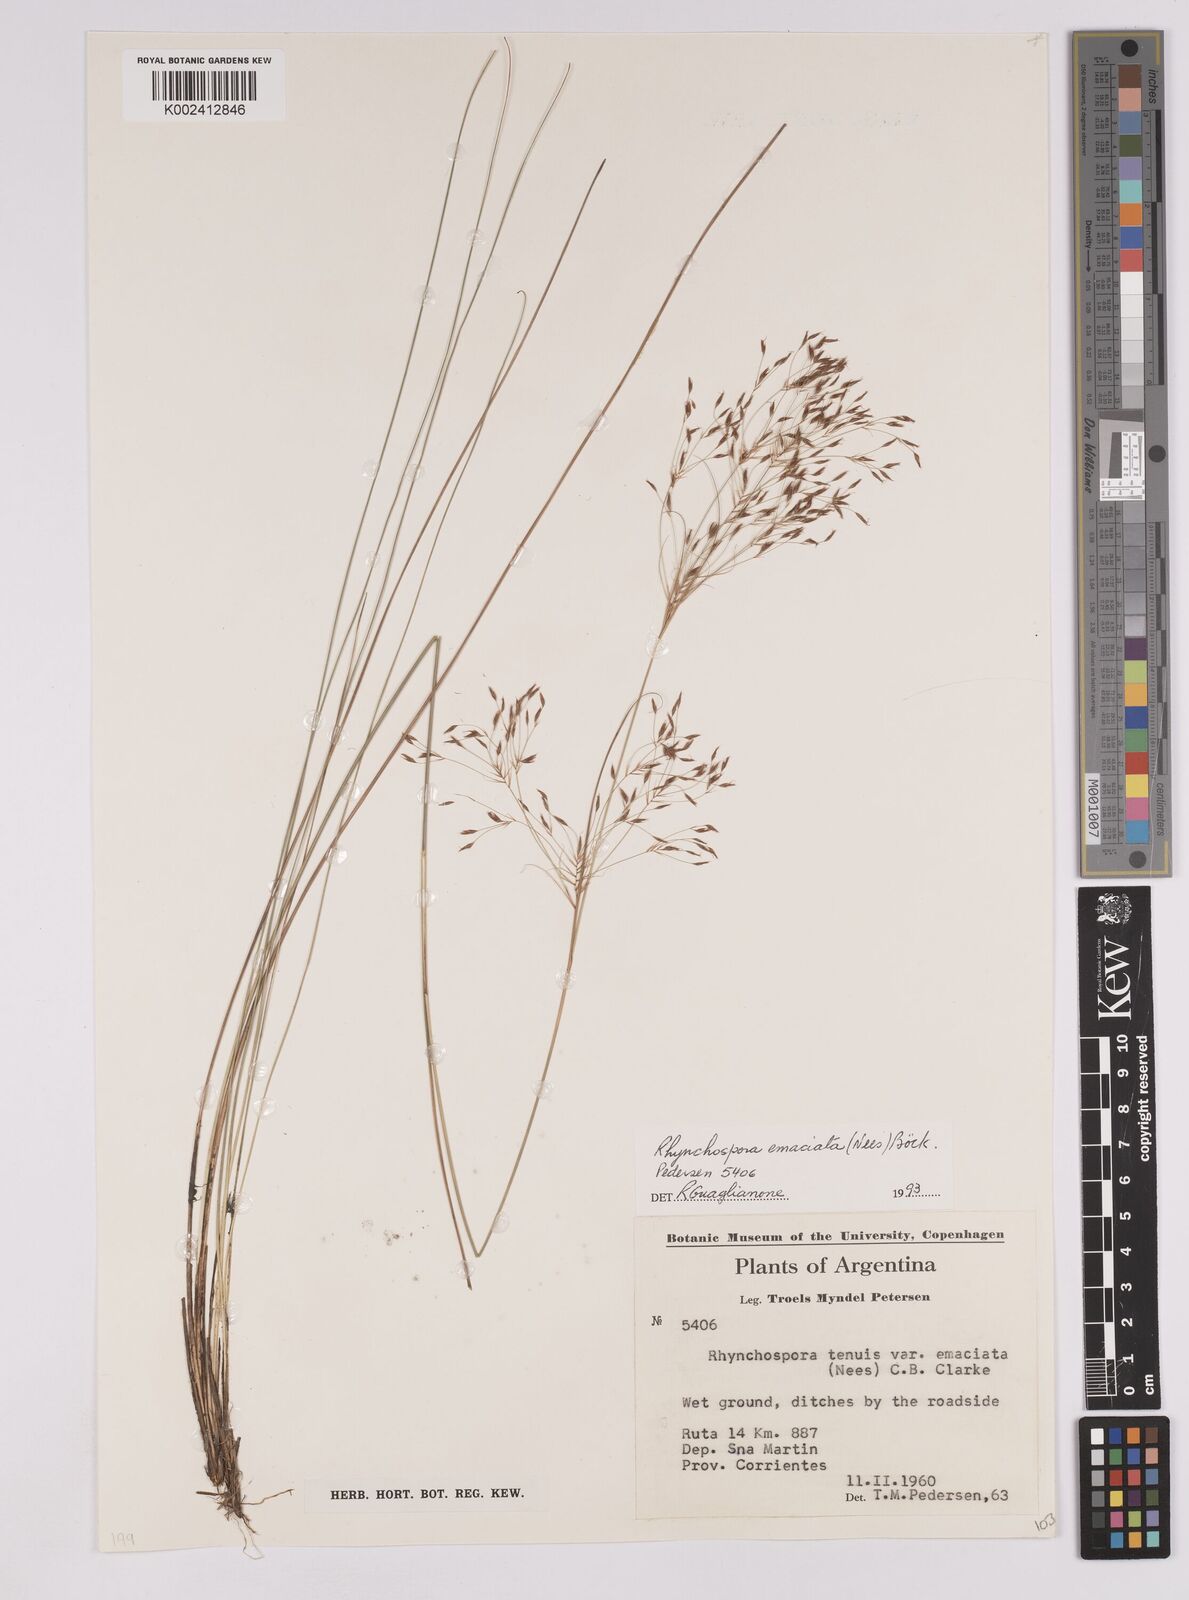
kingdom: Plantae
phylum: Tracheophyta
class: Liliopsida
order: Poales
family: Cyperaceae
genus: Rhynchospora
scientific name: Rhynchospora emaciata
